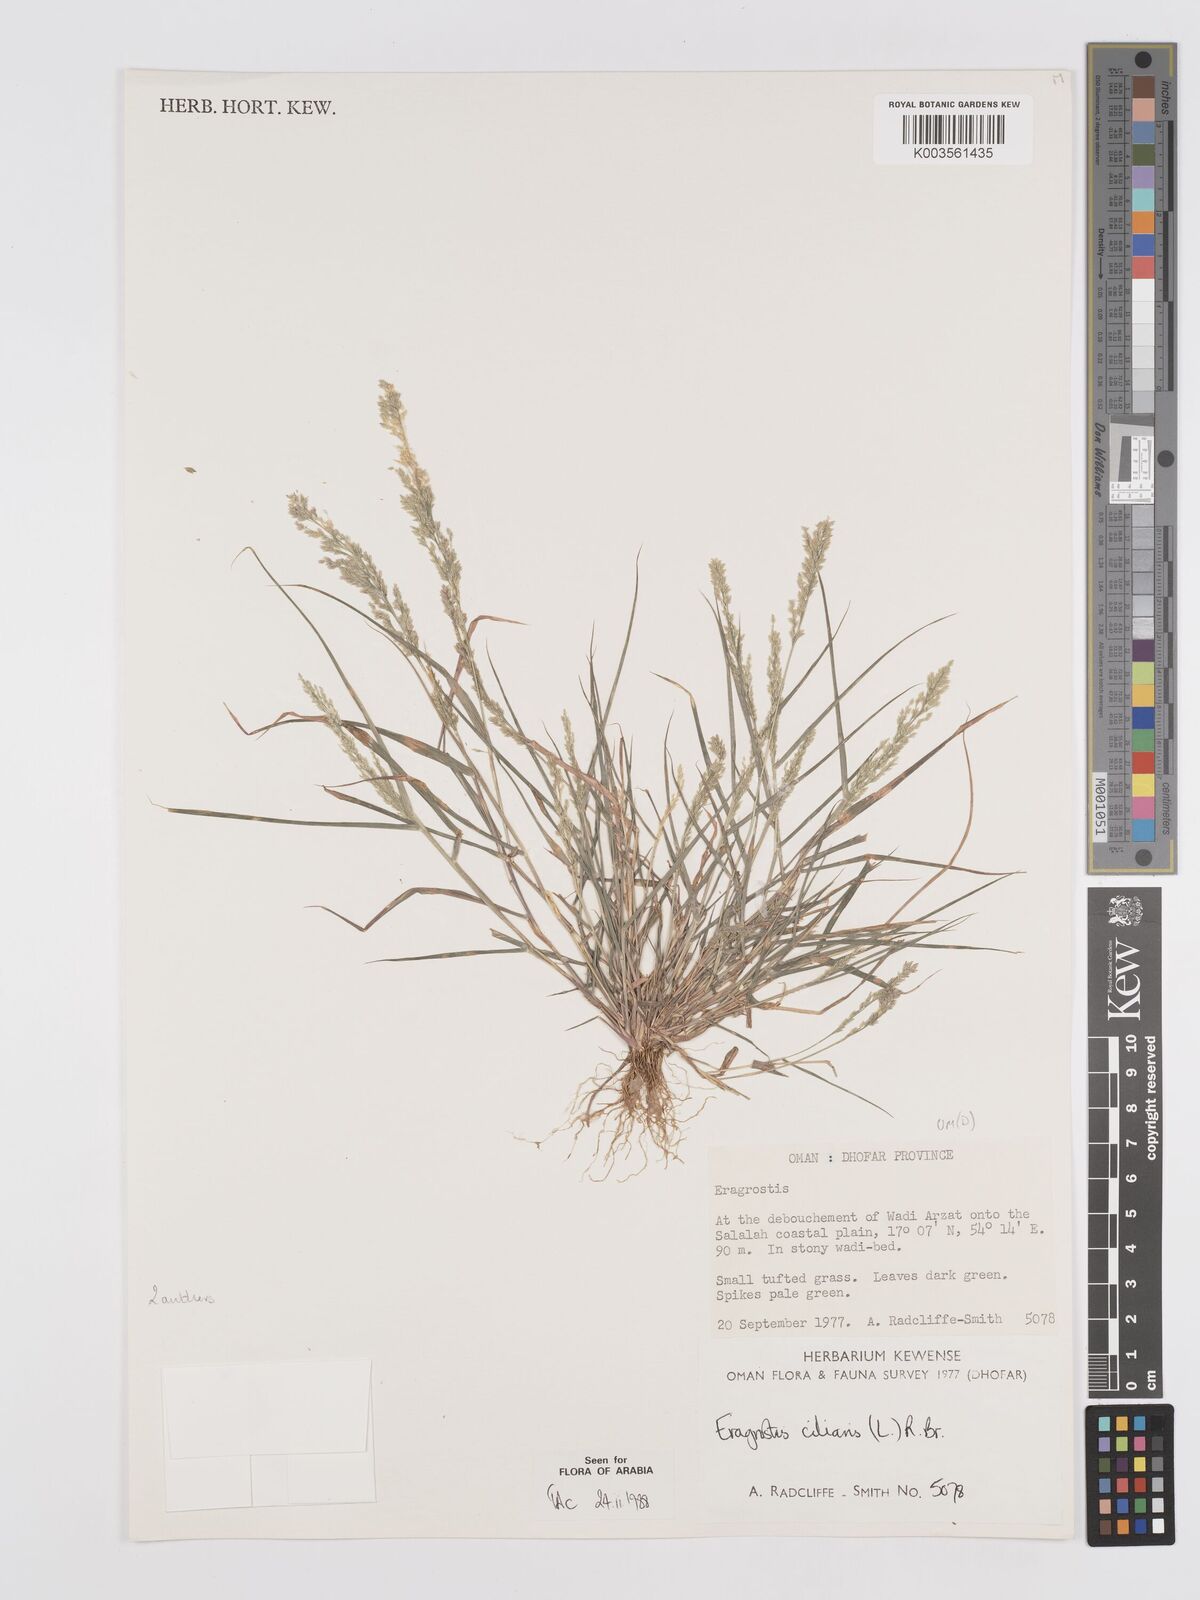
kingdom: Plantae
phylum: Tracheophyta
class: Liliopsida
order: Poales
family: Poaceae
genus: Eragrostis
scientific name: Eragrostis ciliaris
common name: Gophertail lovegrass
